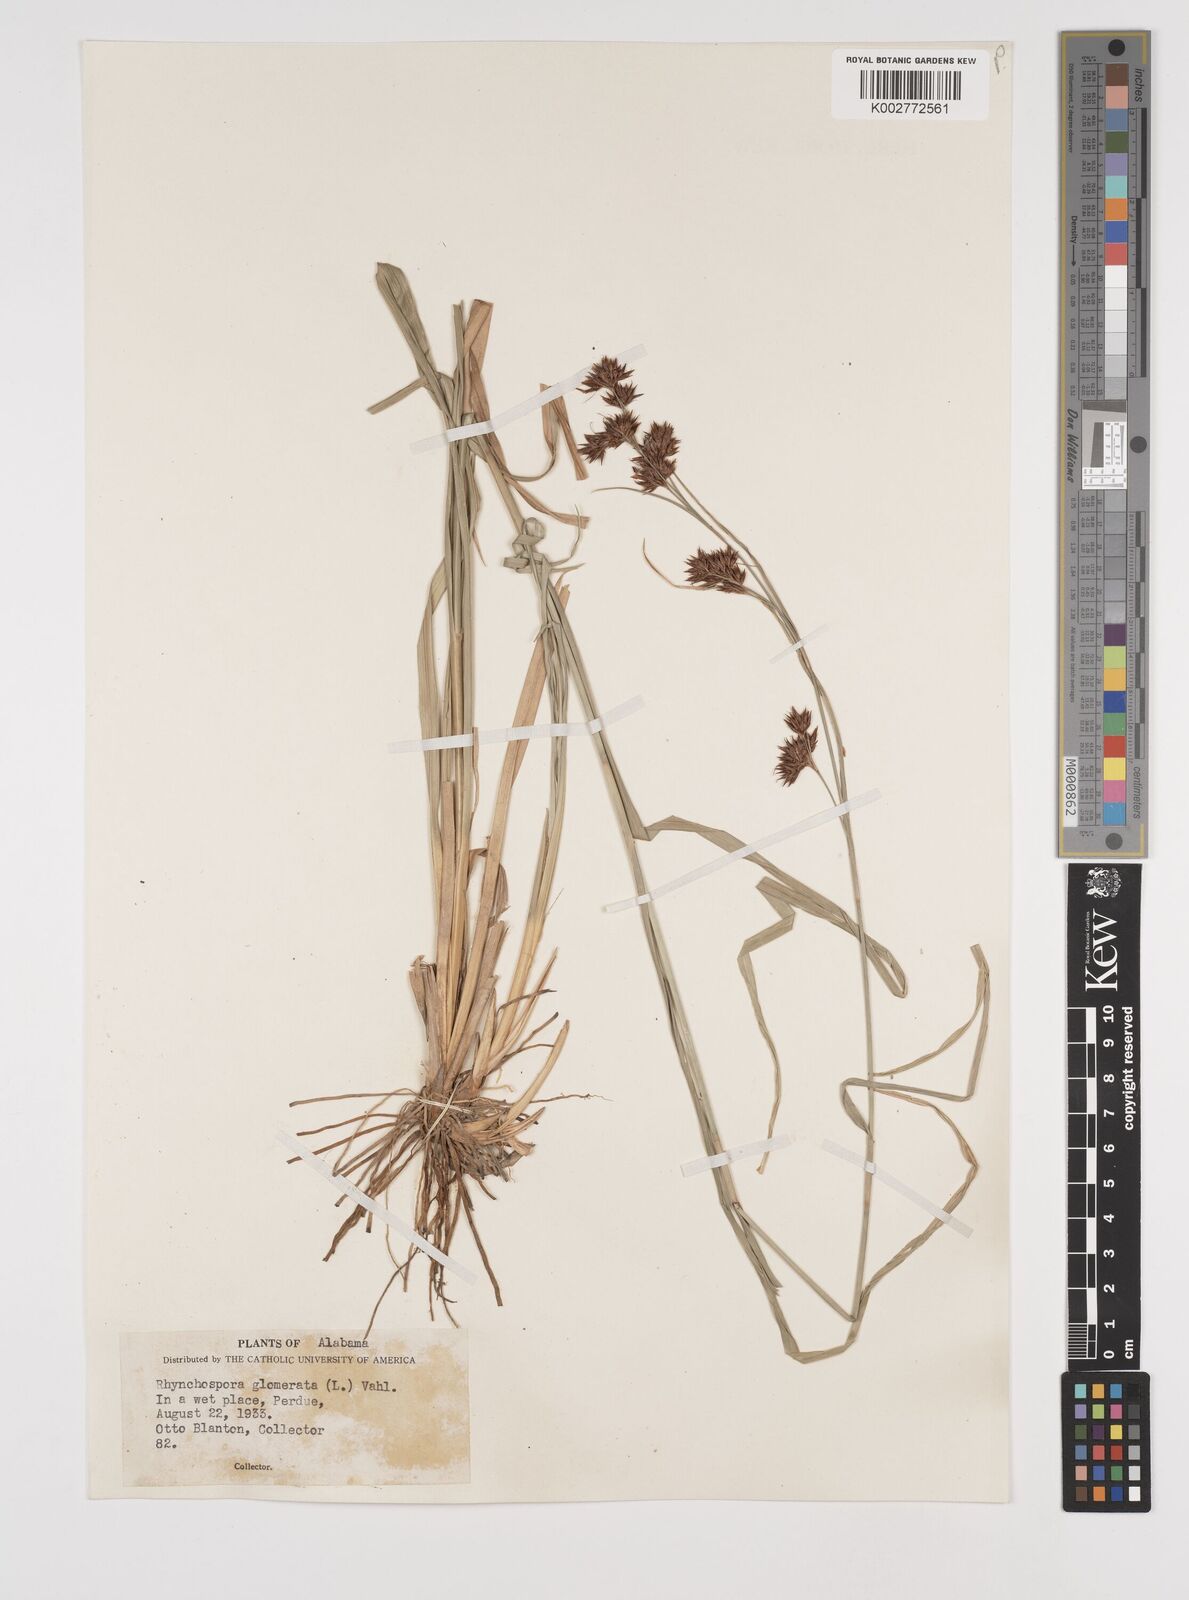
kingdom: Plantae
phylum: Tracheophyta
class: Liliopsida
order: Poales
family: Cyperaceae
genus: Rhynchospora
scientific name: Rhynchospora glomerata
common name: Cluster beak sedge
